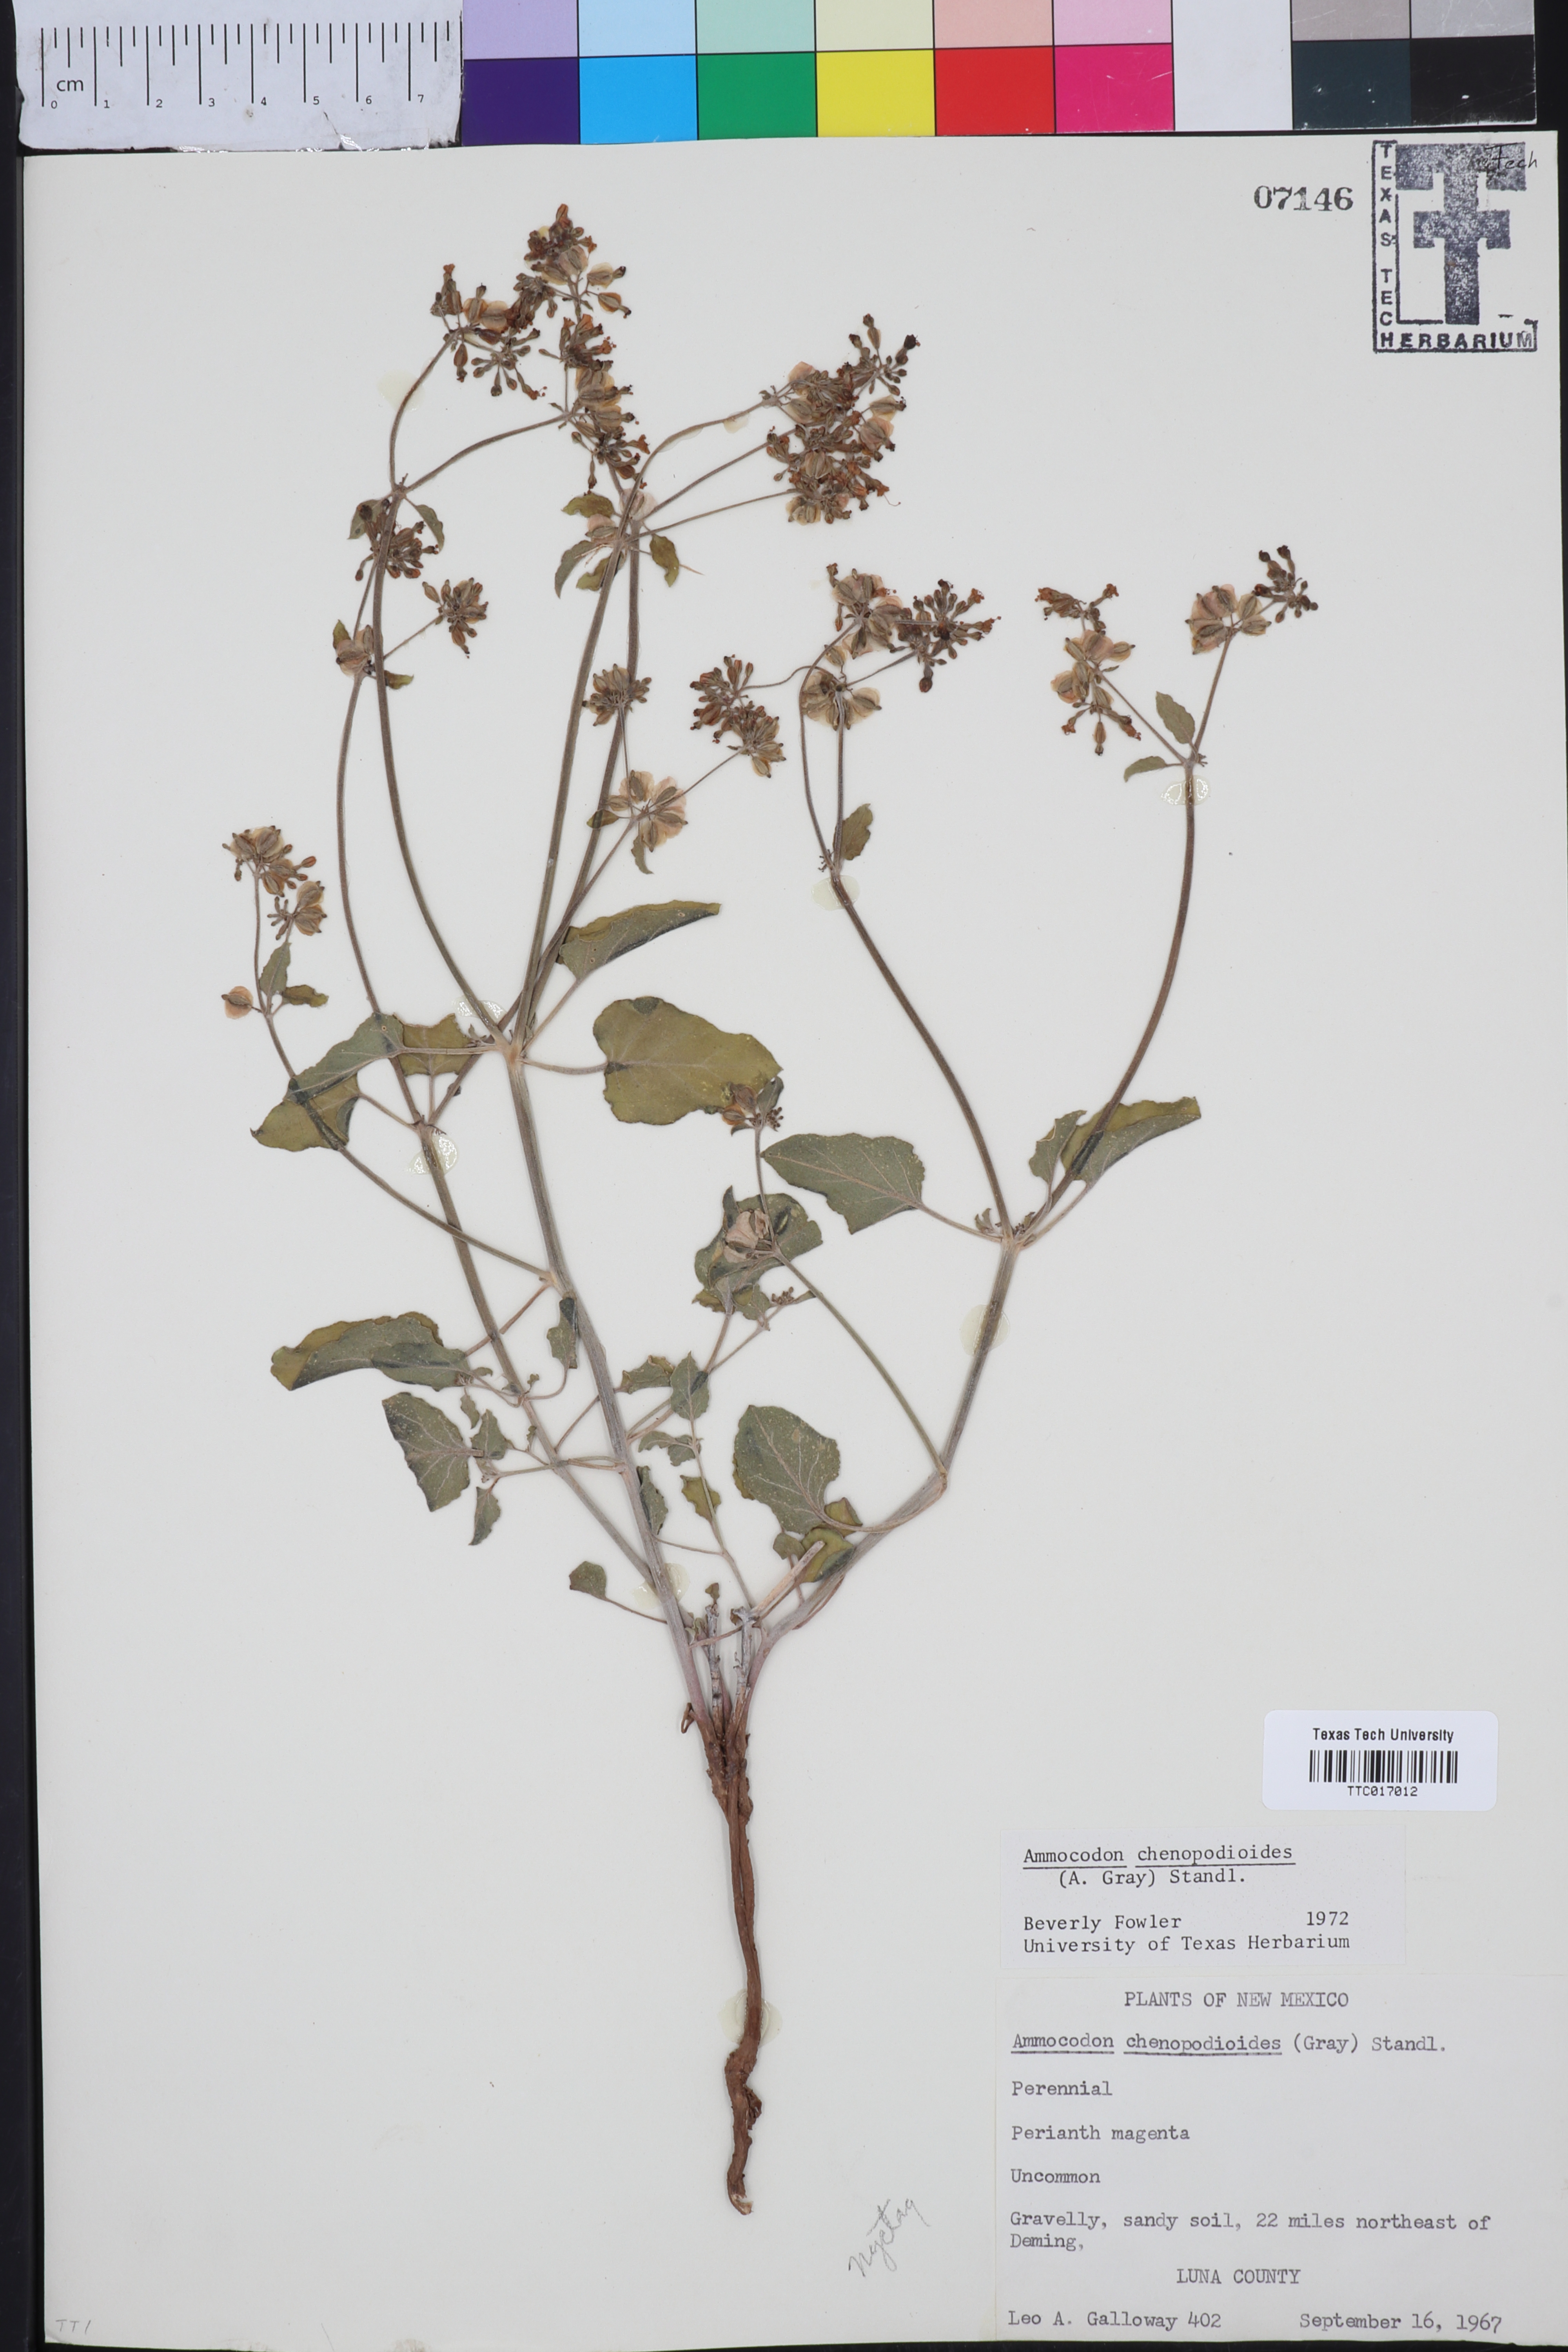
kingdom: Plantae
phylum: Tracheophyta
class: Magnoliopsida
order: Caryophyllales
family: Nyctaginaceae
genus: Acleisanthes
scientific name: Acleisanthes chenopodioides
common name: Goosefoot moonpod
